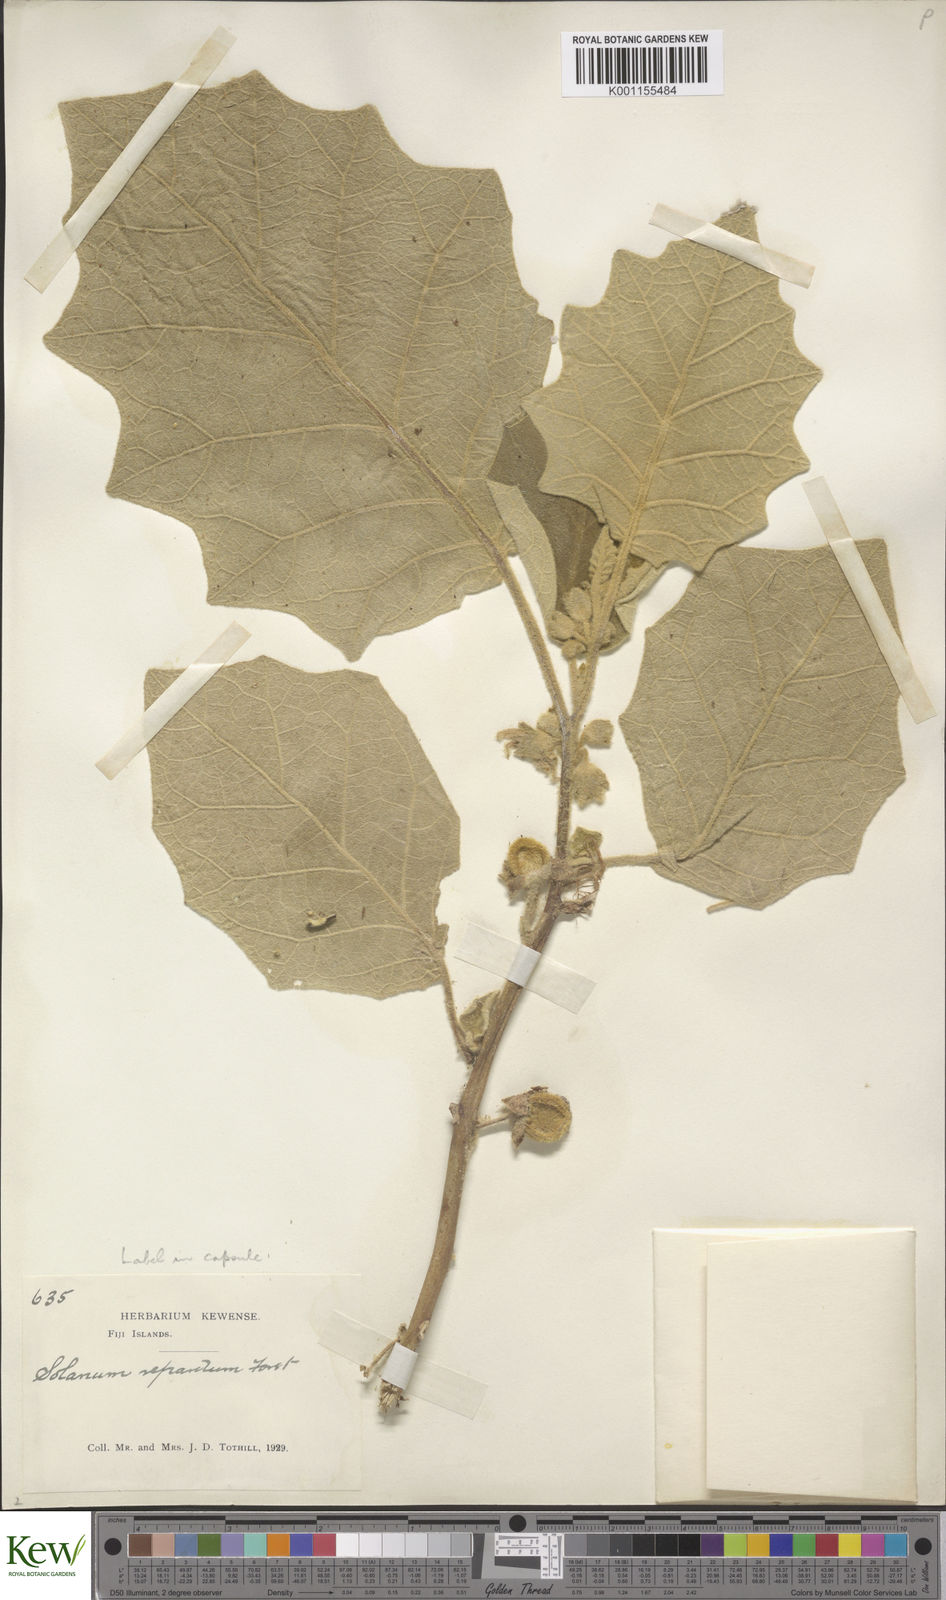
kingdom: Plantae
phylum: Tracheophyta
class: Magnoliopsida
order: Solanales
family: Solanaceae
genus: Solanum
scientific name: Solanum repandum
